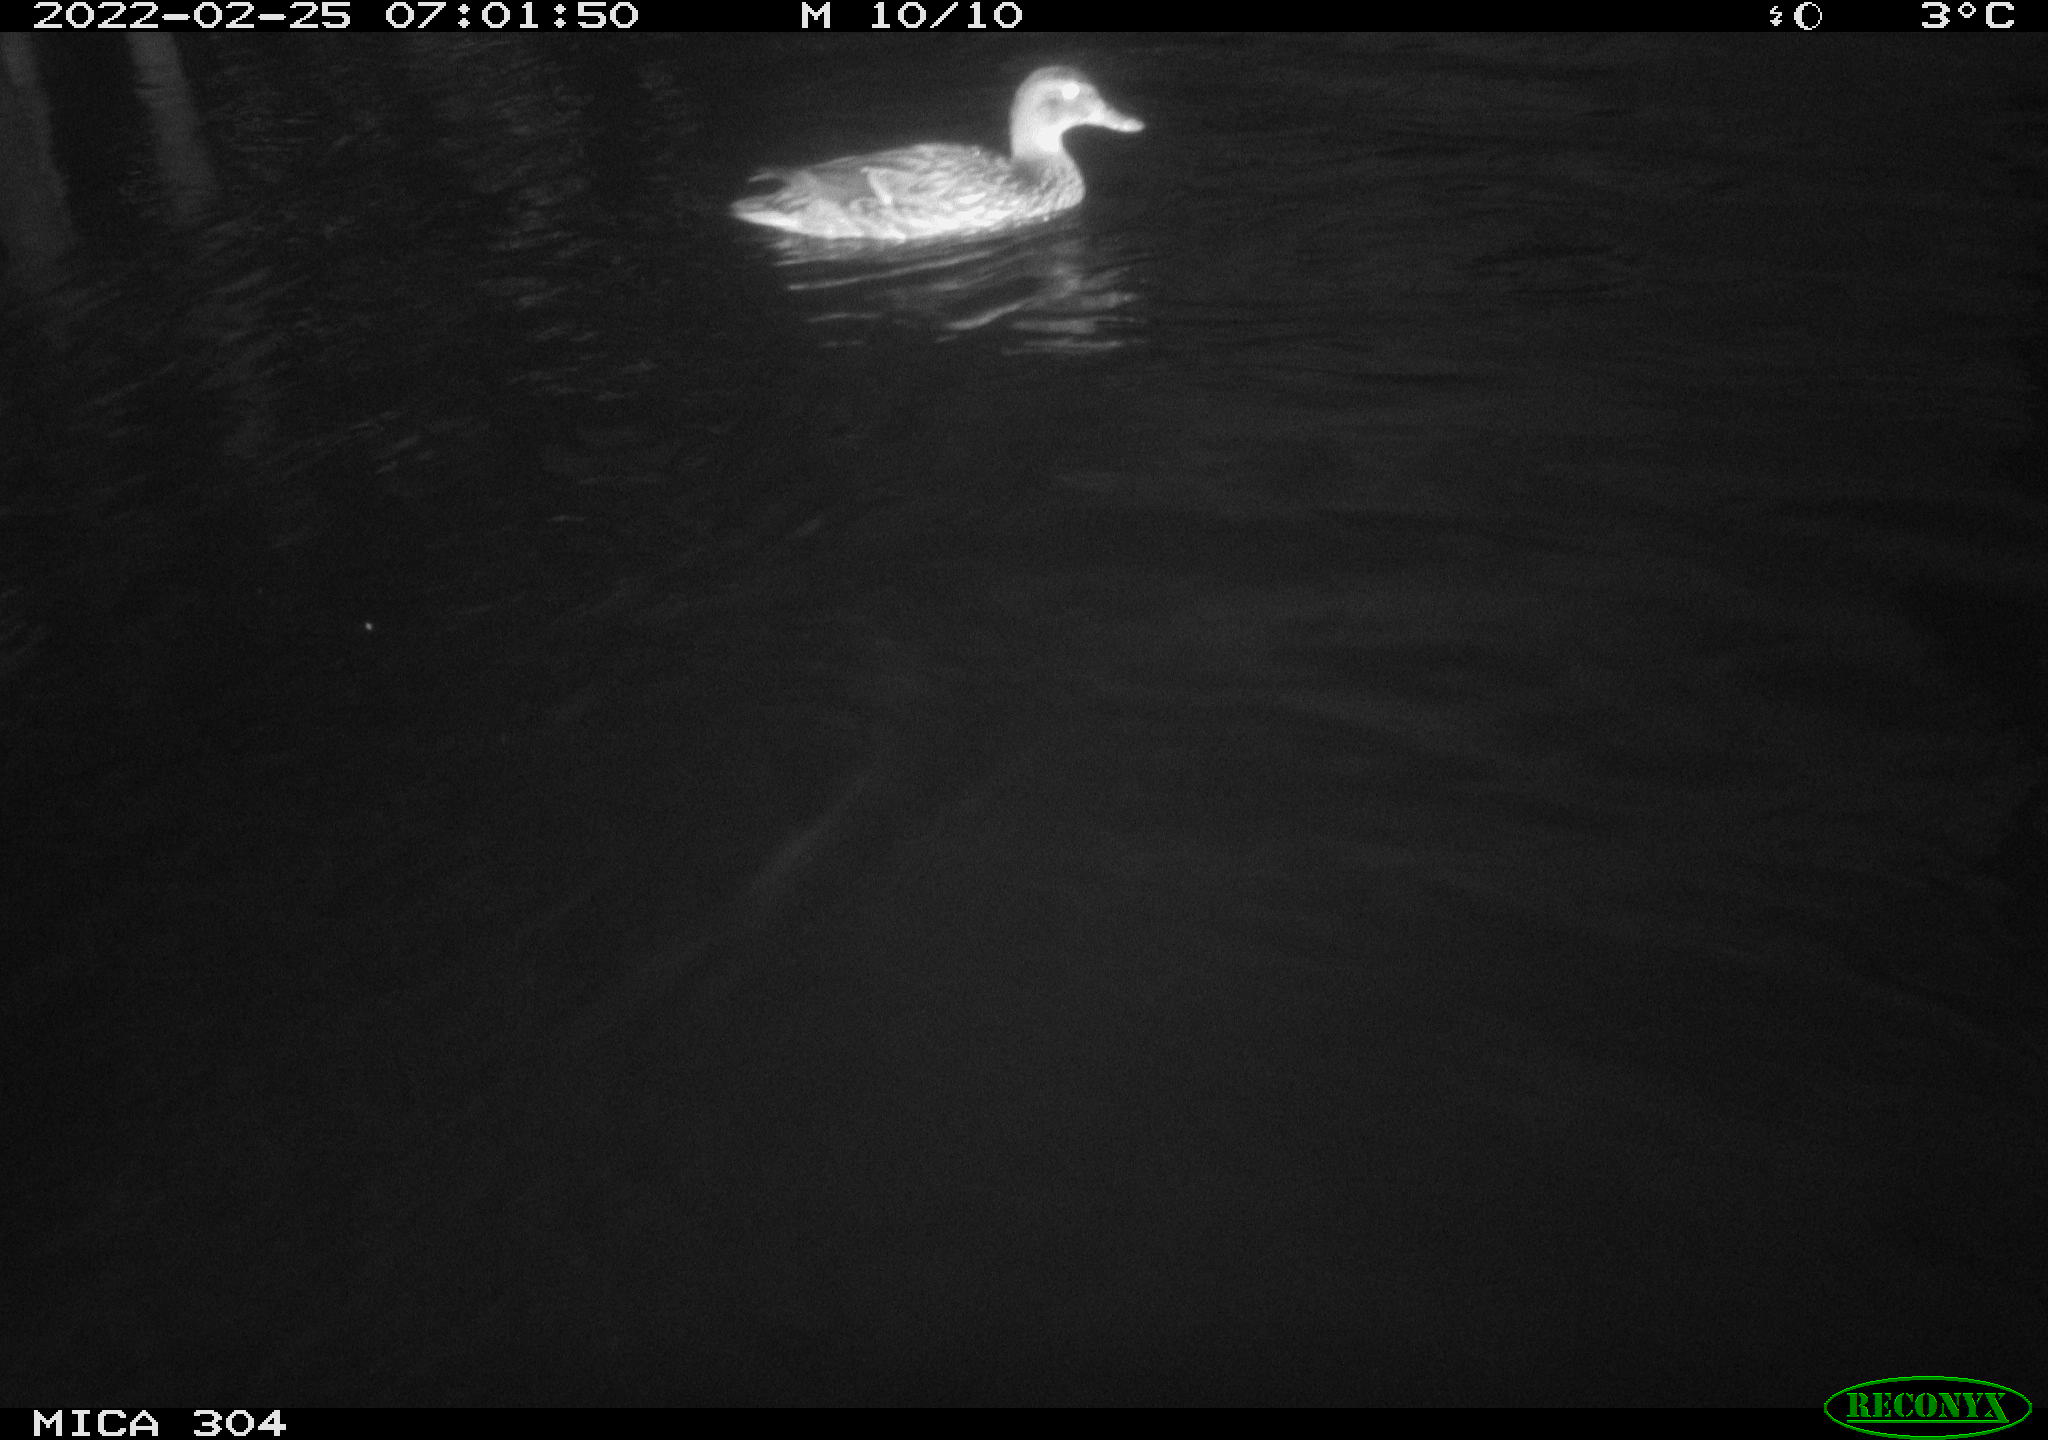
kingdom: Animalia
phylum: Chordata
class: Aves
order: Anseriformes
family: Anatidae
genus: Mareca
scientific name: Mareca strepera
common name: Gadwall
